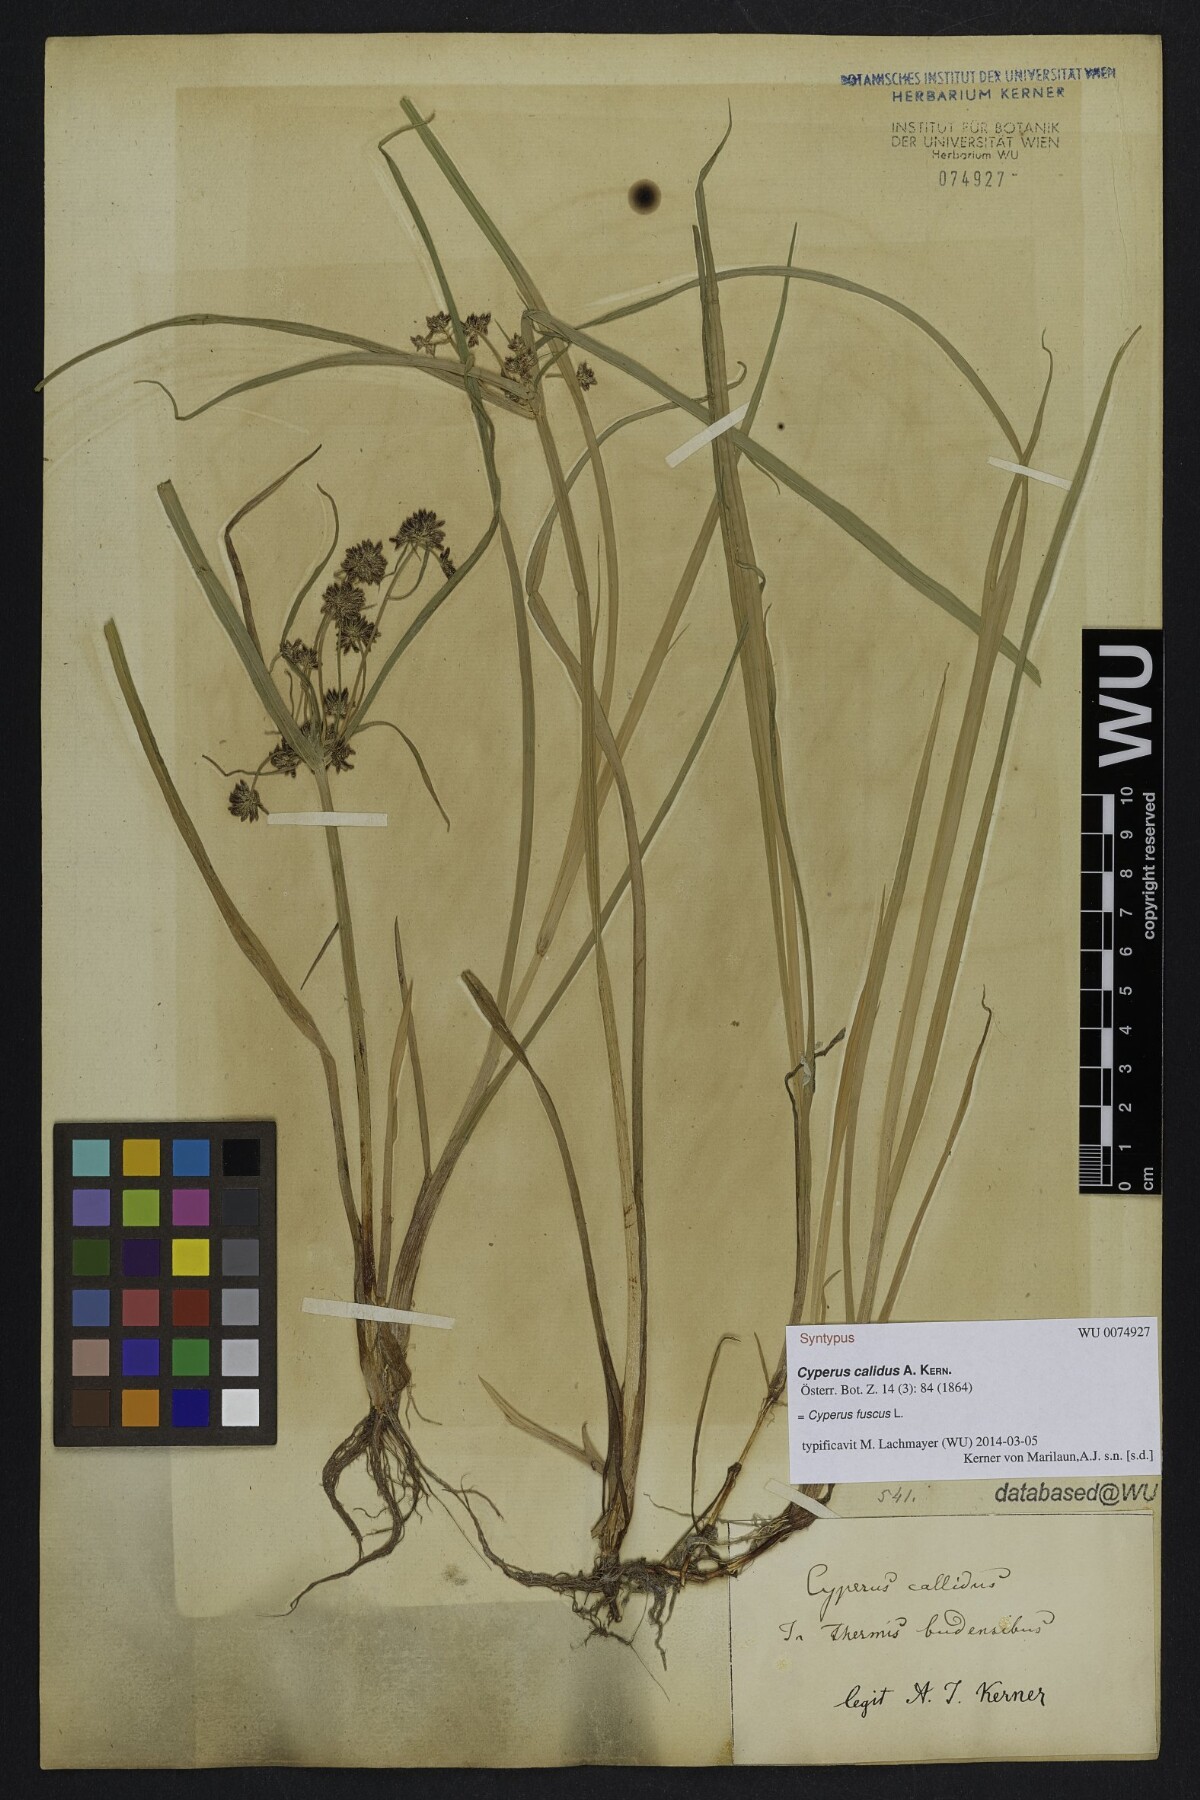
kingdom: Plantae
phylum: Tracheophyta
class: Liliopsida
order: Poales
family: Cyperaceae
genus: Cyperus
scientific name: Cyperus fuscus
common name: Brown galingale
